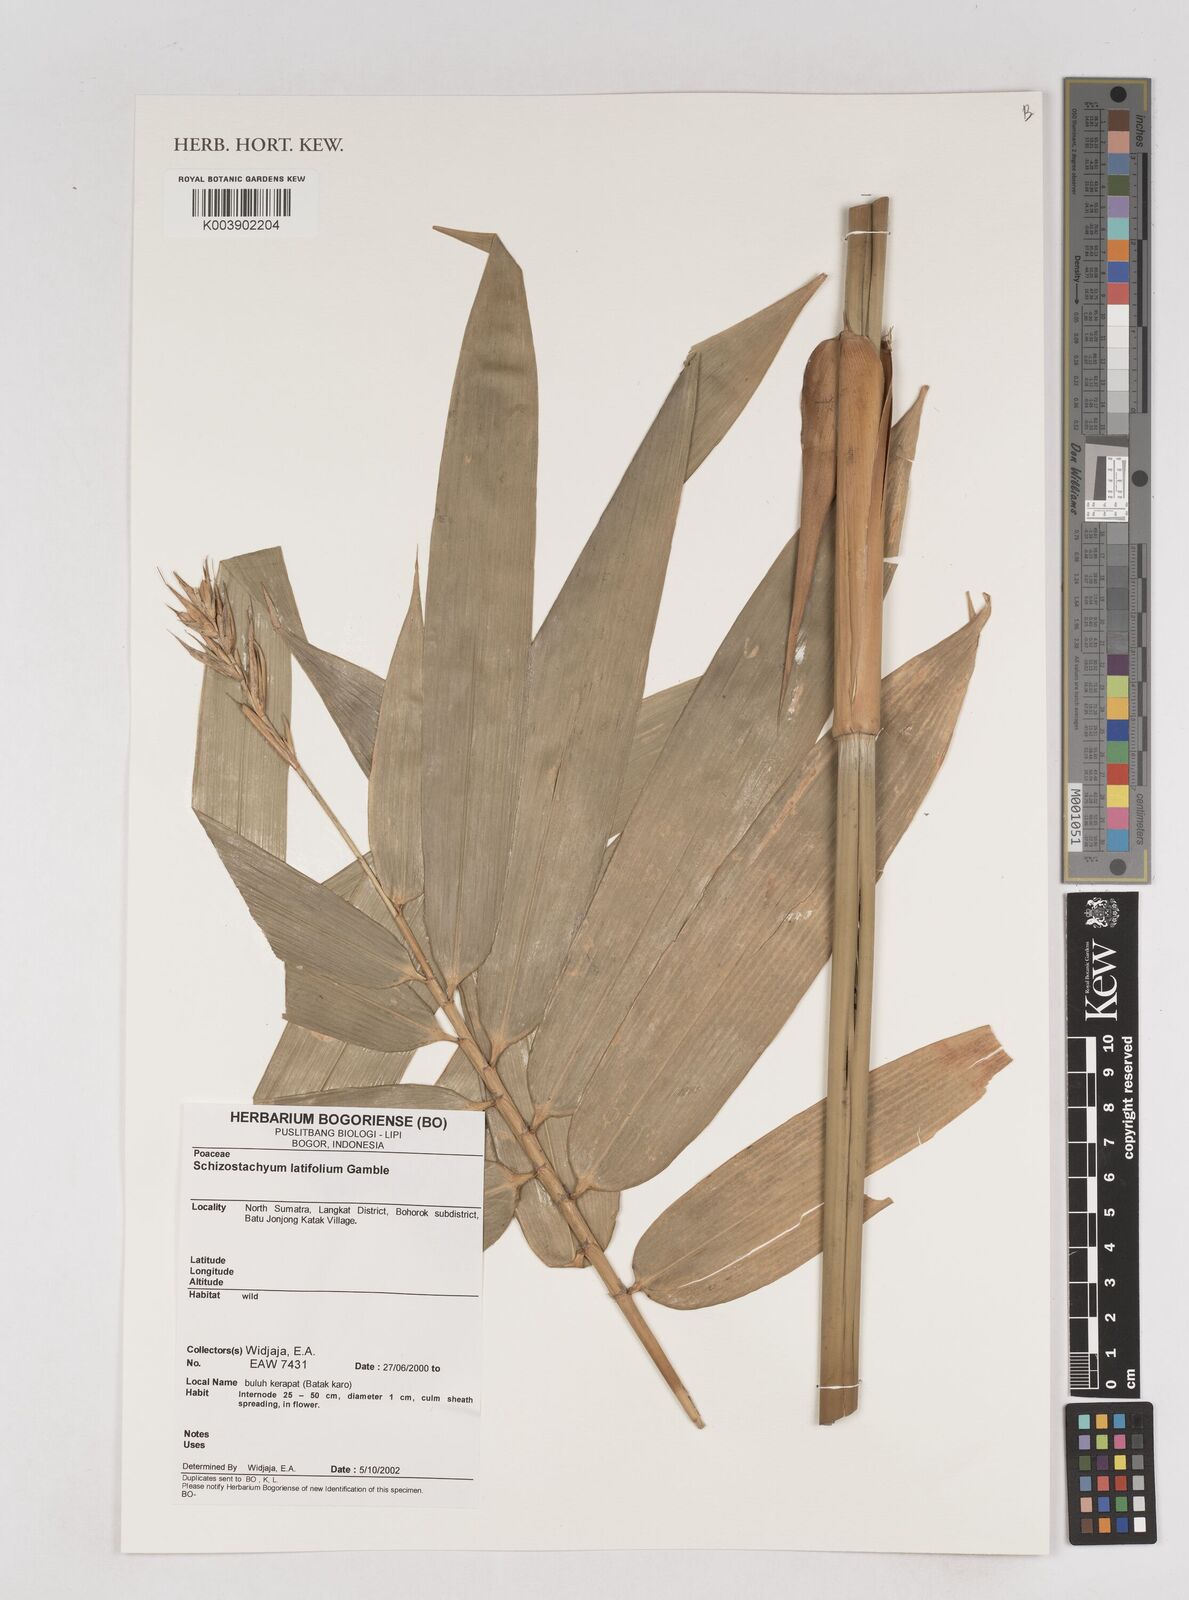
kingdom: Plantae
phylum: Tracheophyta
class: Liliopsida
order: Poales
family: Poaceae
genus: Schizostachyum
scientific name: Schizostachyum latifolium
